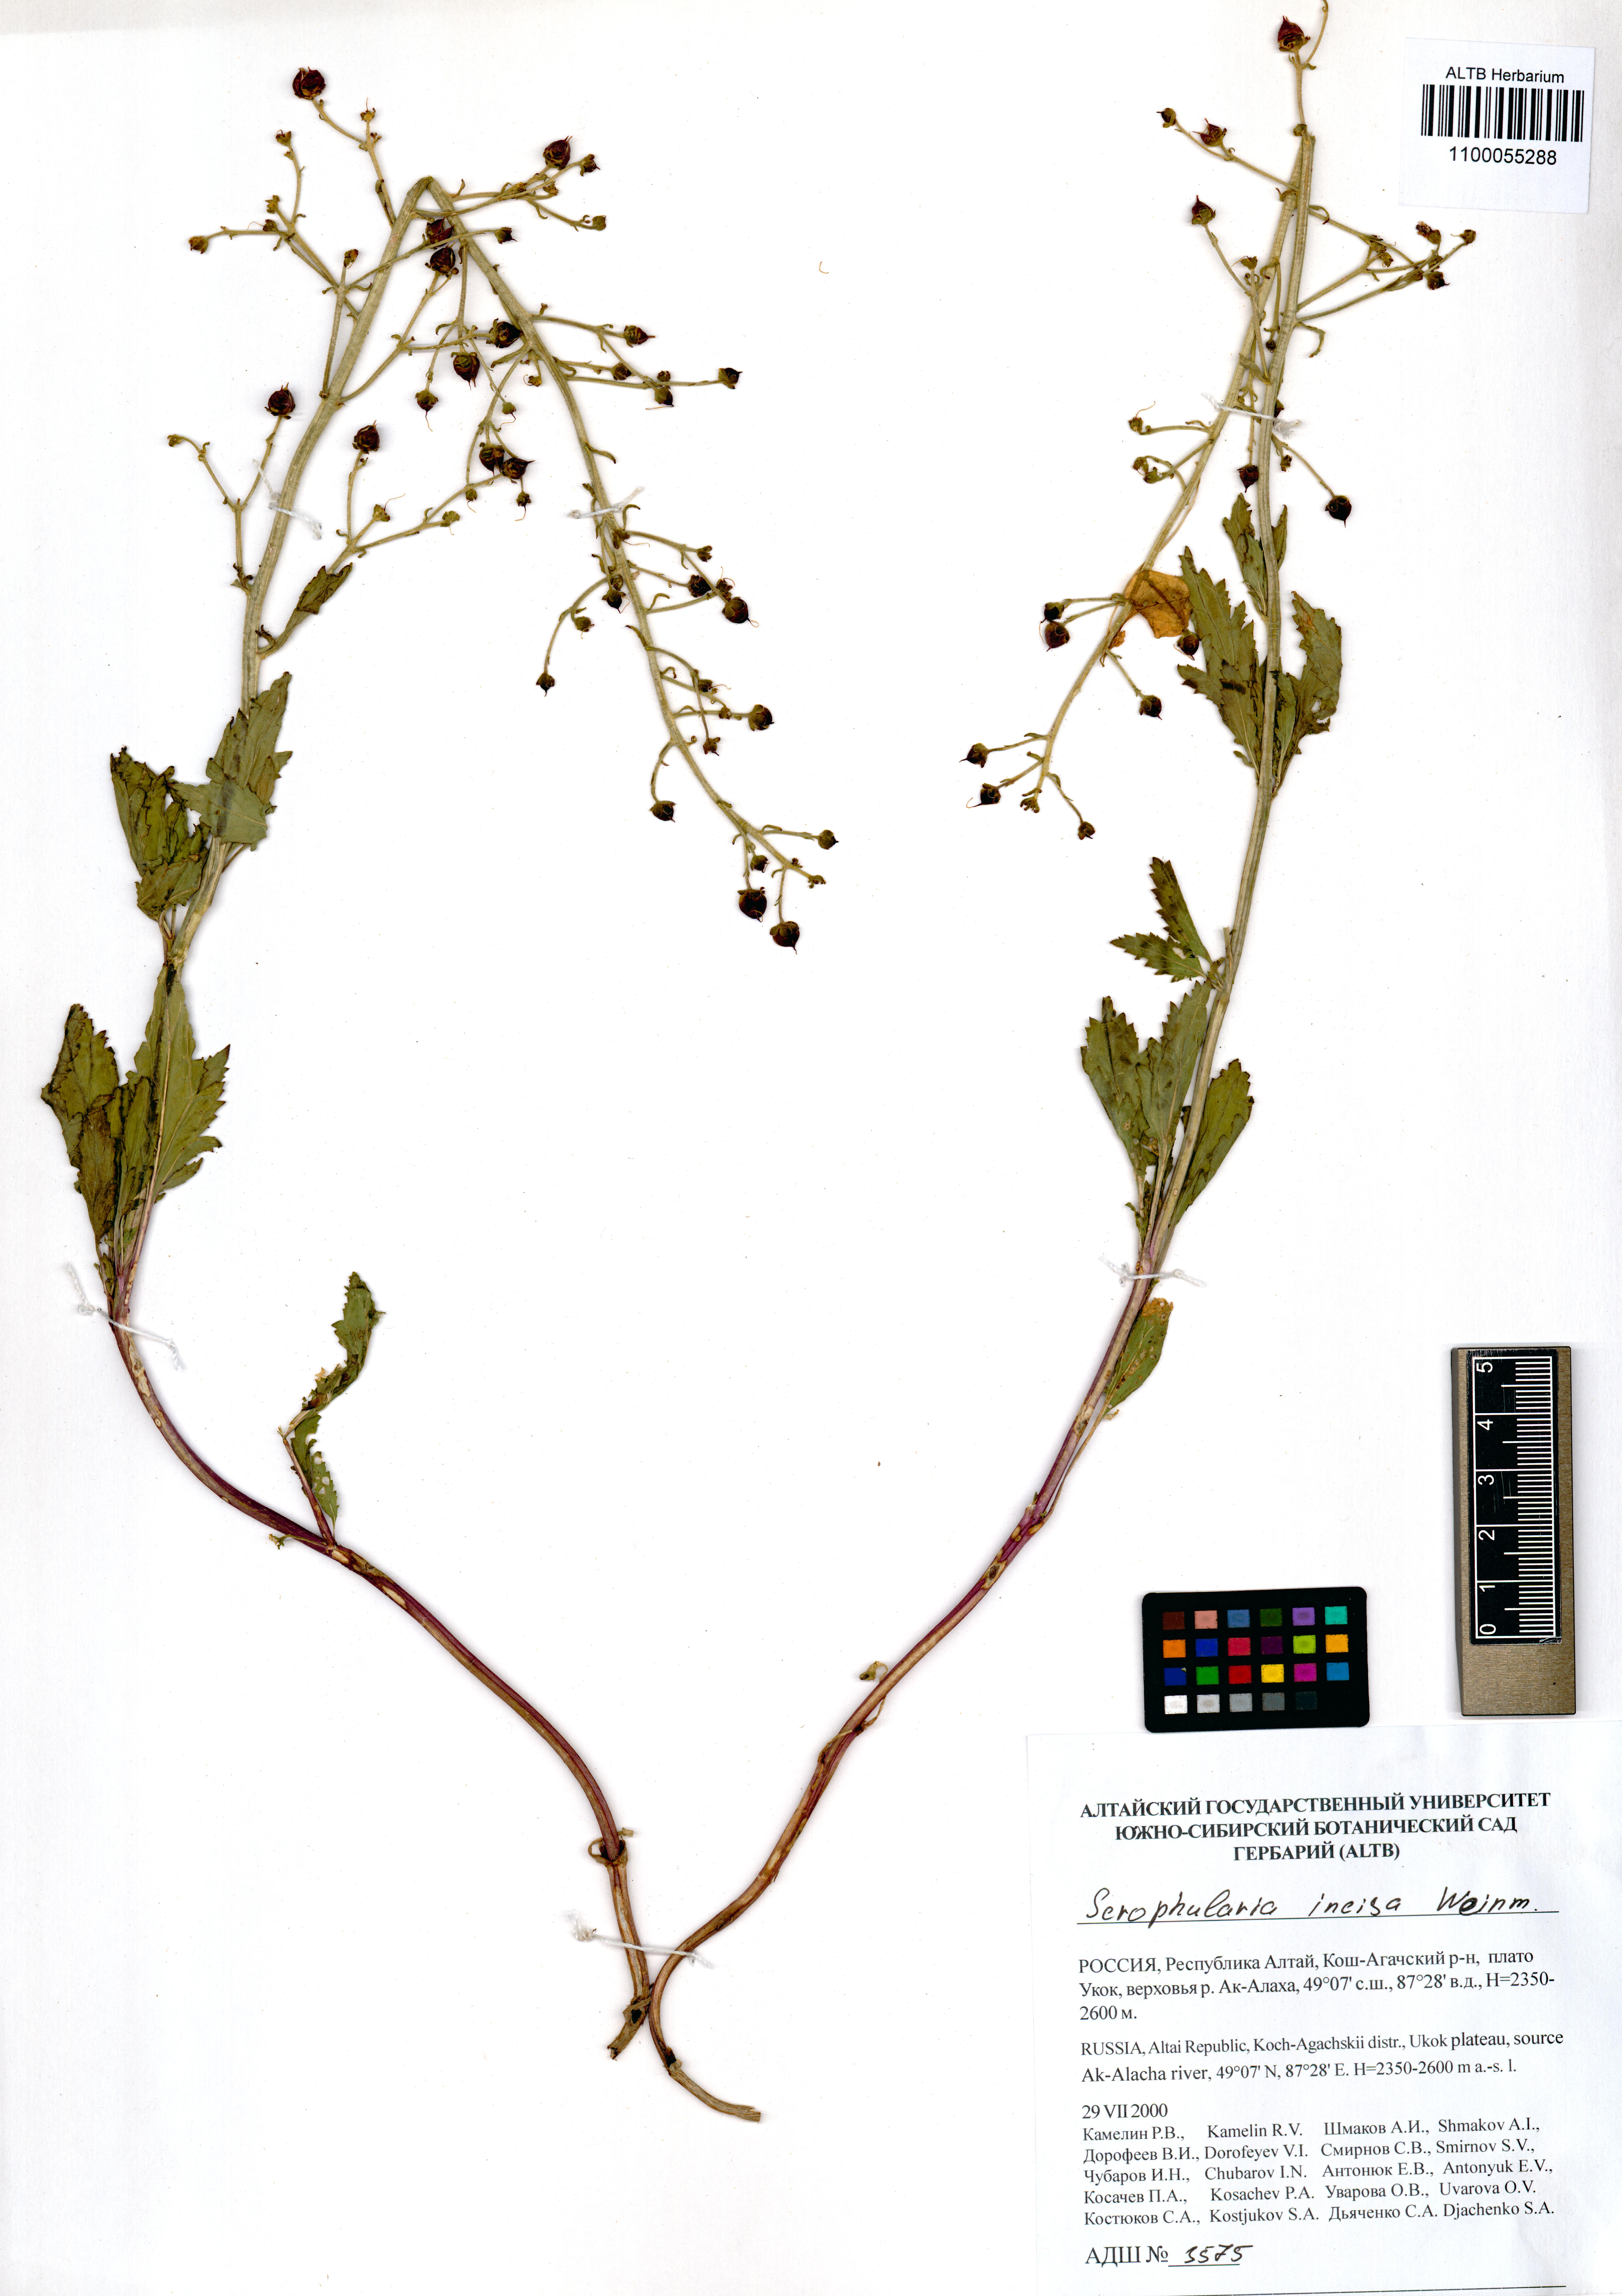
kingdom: Plantae
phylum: Tracheophyta
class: Magnoliopsida
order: Lamiales
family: Scrophulariaceae
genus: Scrophularia
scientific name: Scrophularia incisa
